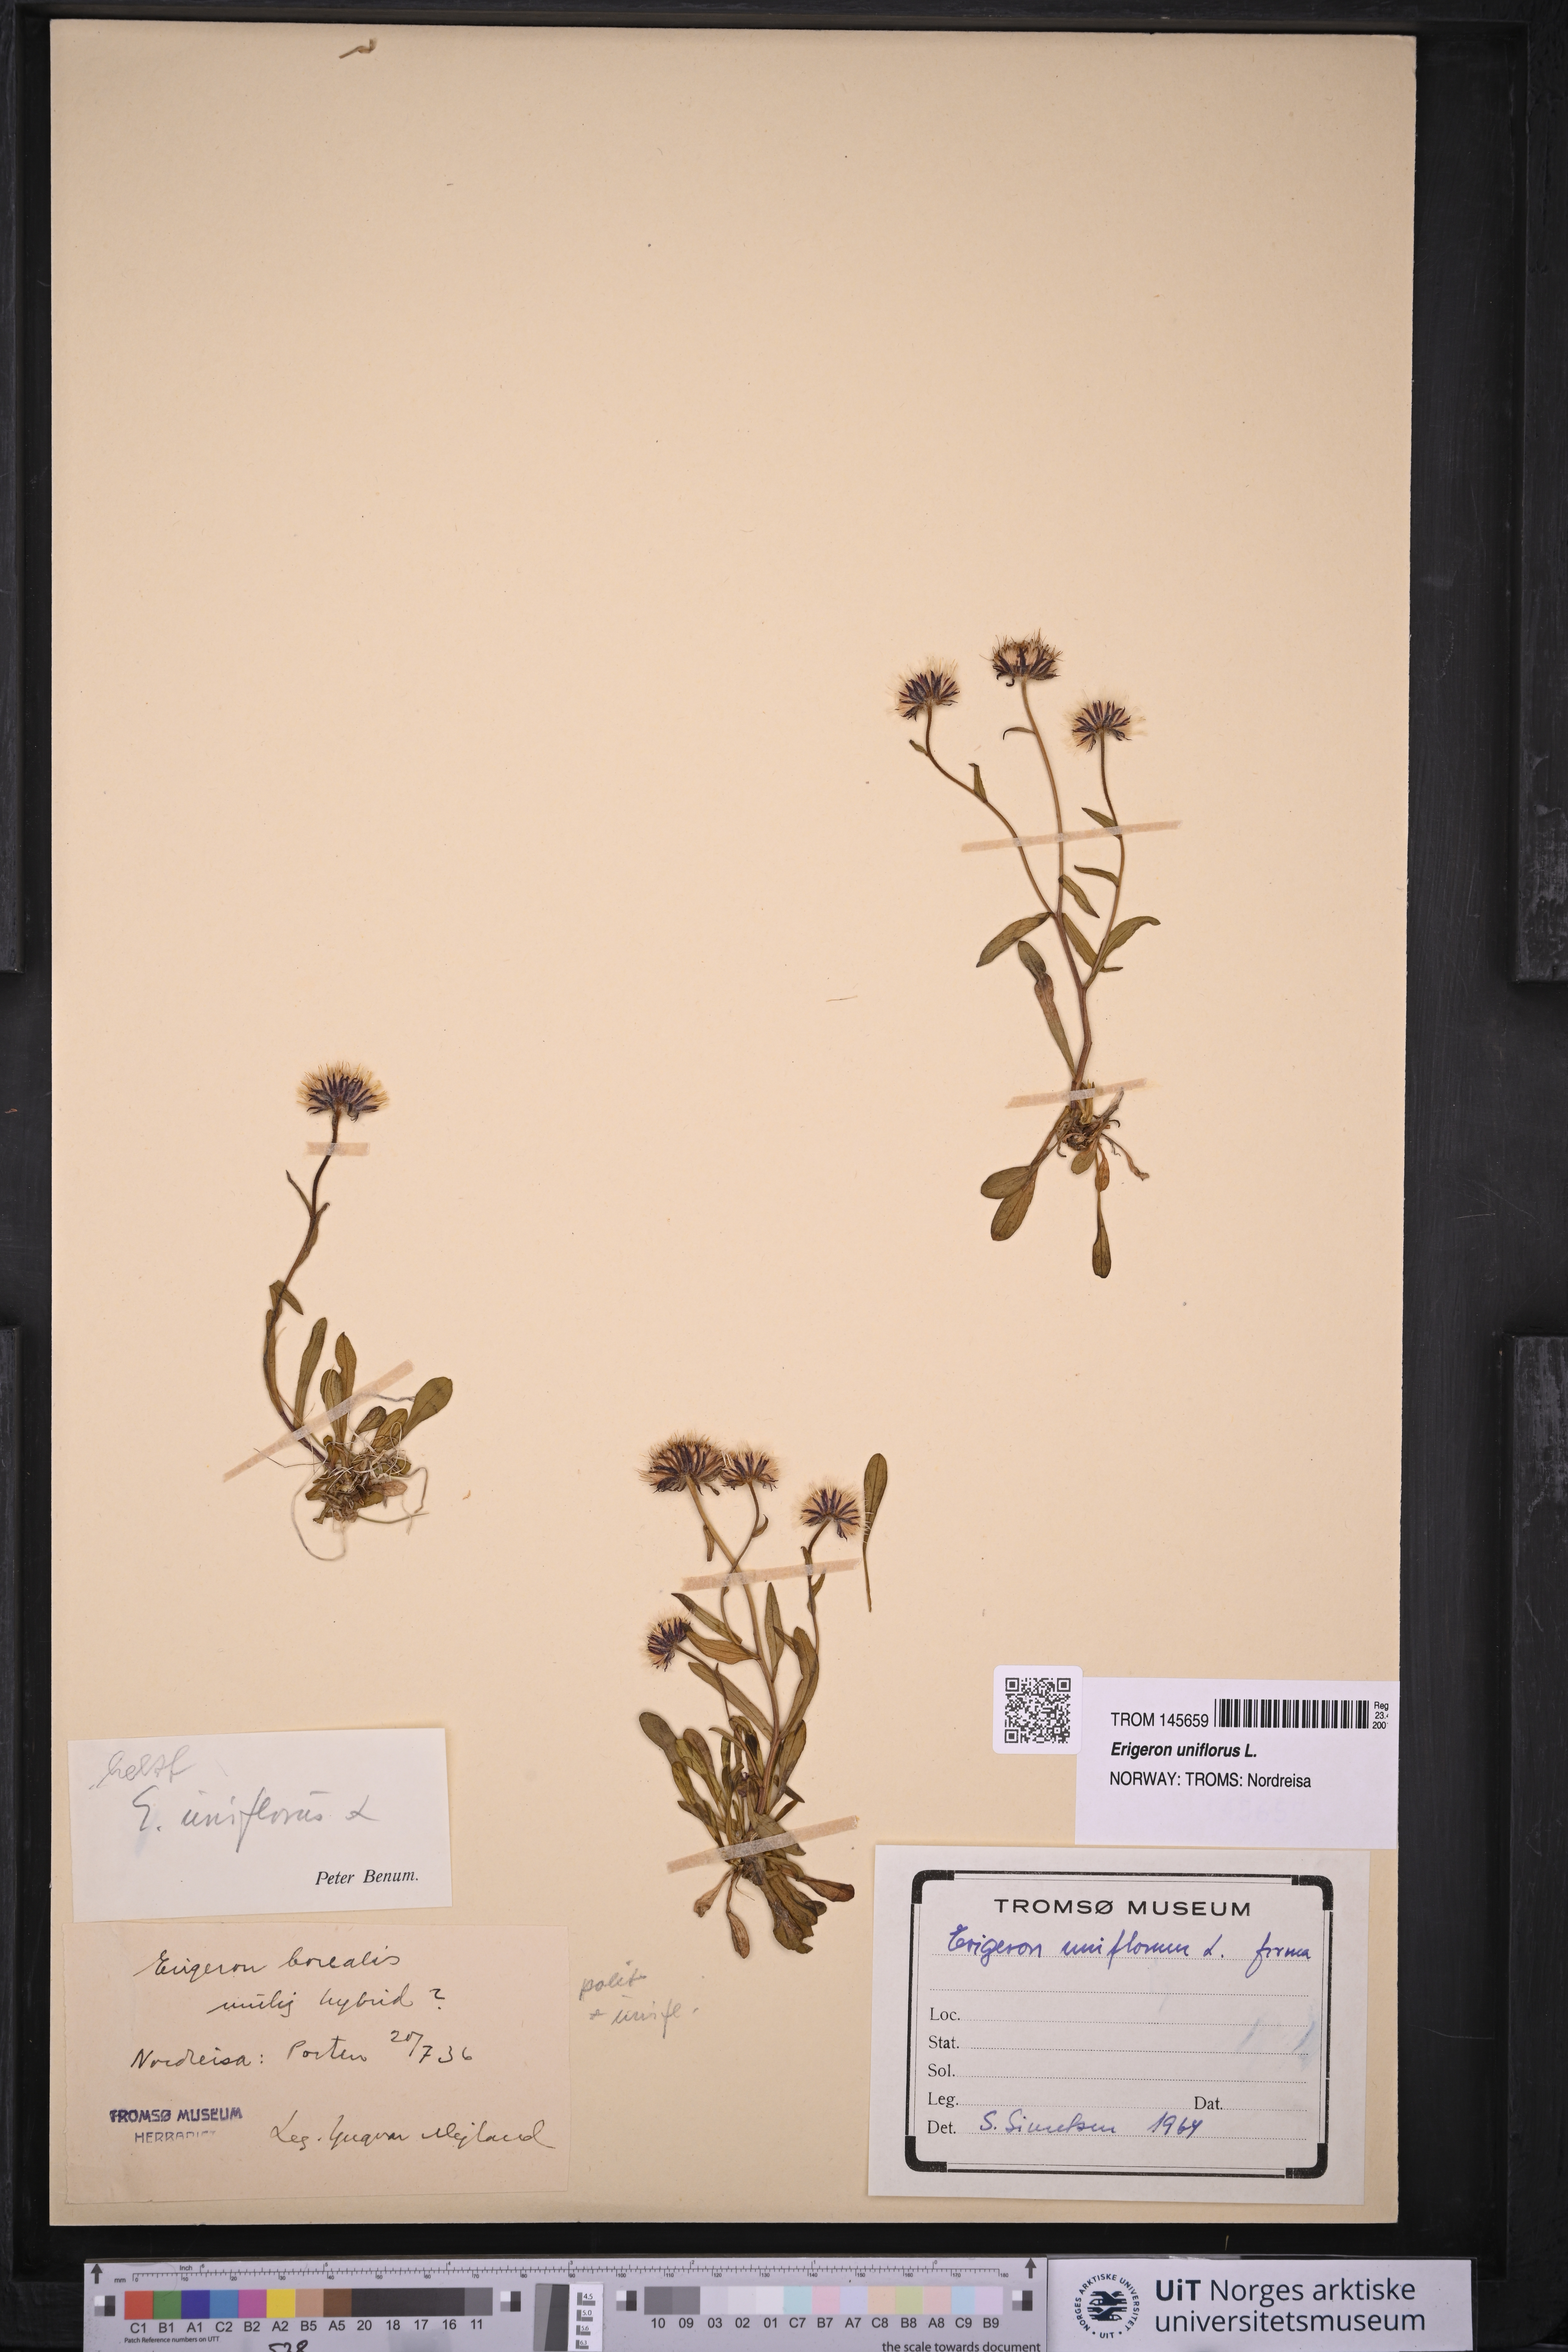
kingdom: Plantae
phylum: Tracheophyta
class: Magnoliopsida
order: Asterales
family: Asteraceae
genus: Erigeron
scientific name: Erigeron uniflorus
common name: Northern daisy
